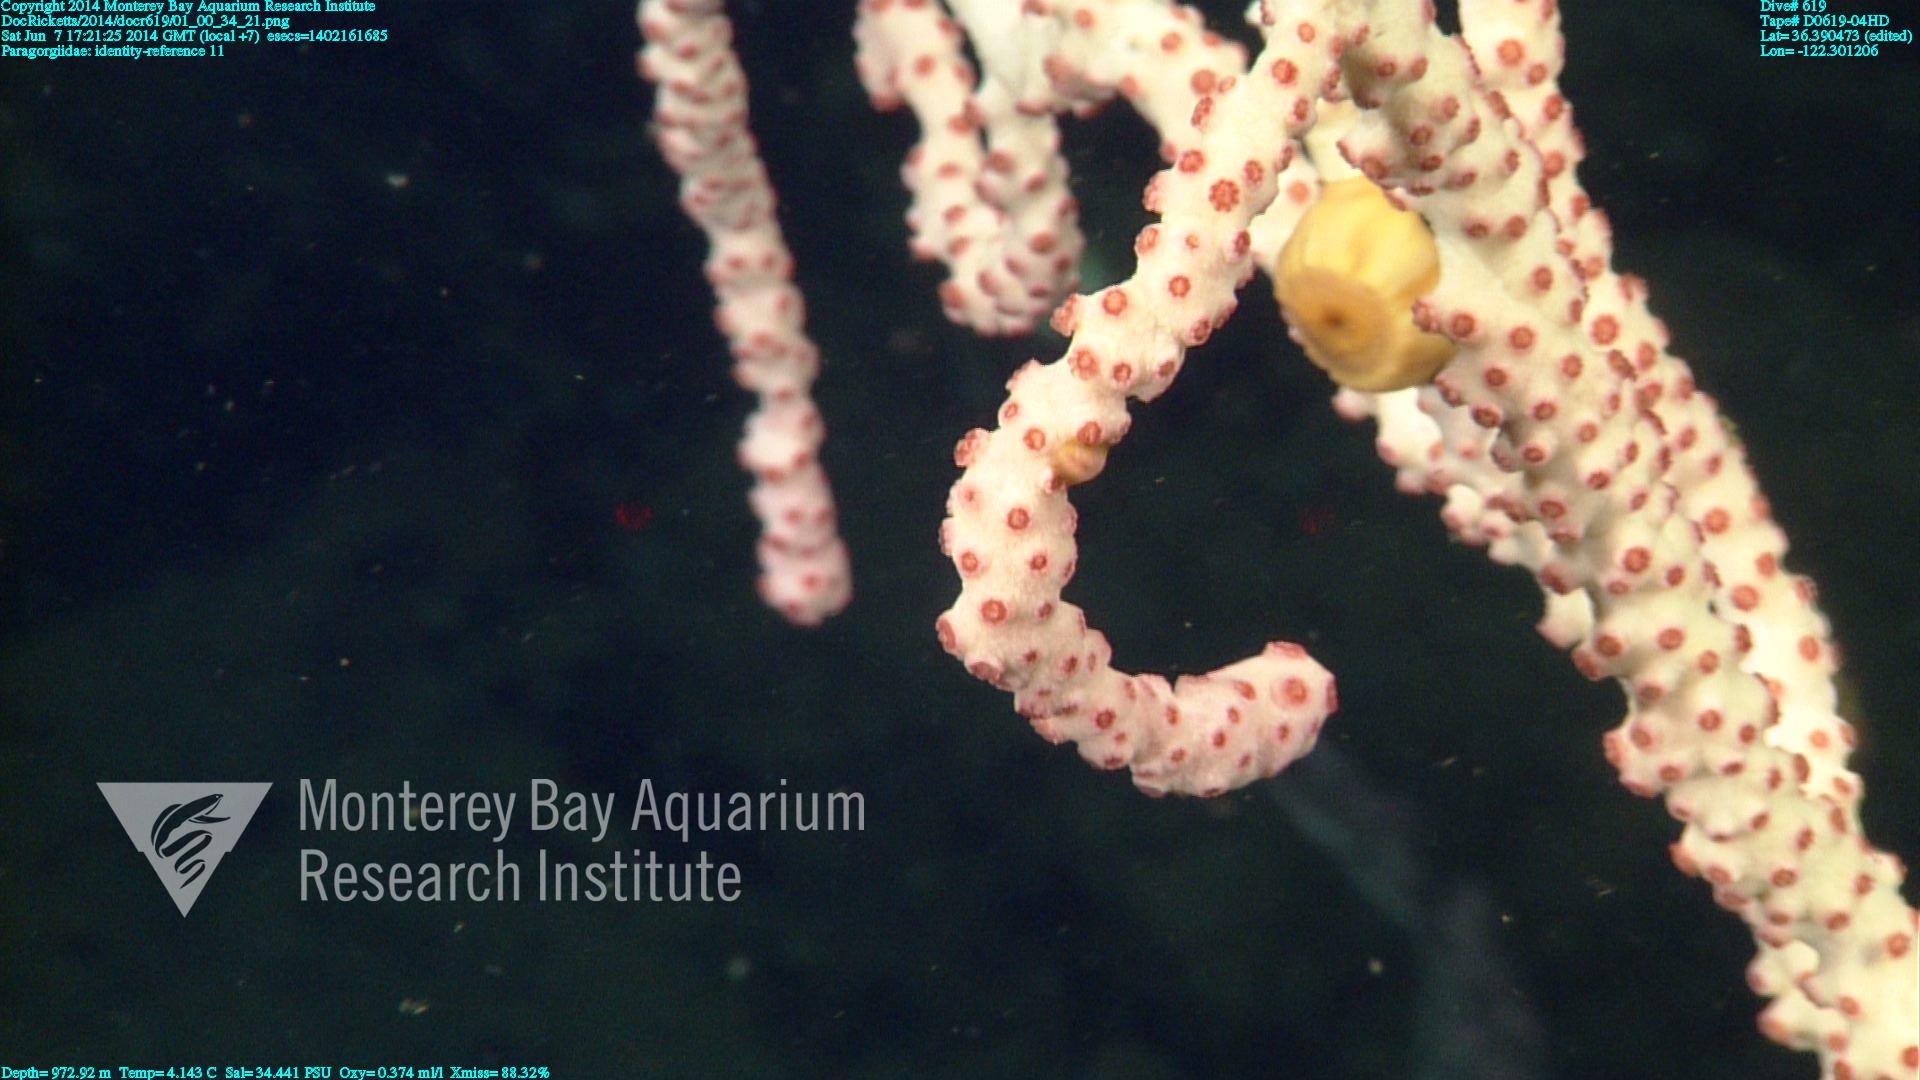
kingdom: Animalia
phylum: Cnidaria
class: Anthozoa
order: Scleralcyonacea
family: Coralliidae
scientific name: Coralliidae
